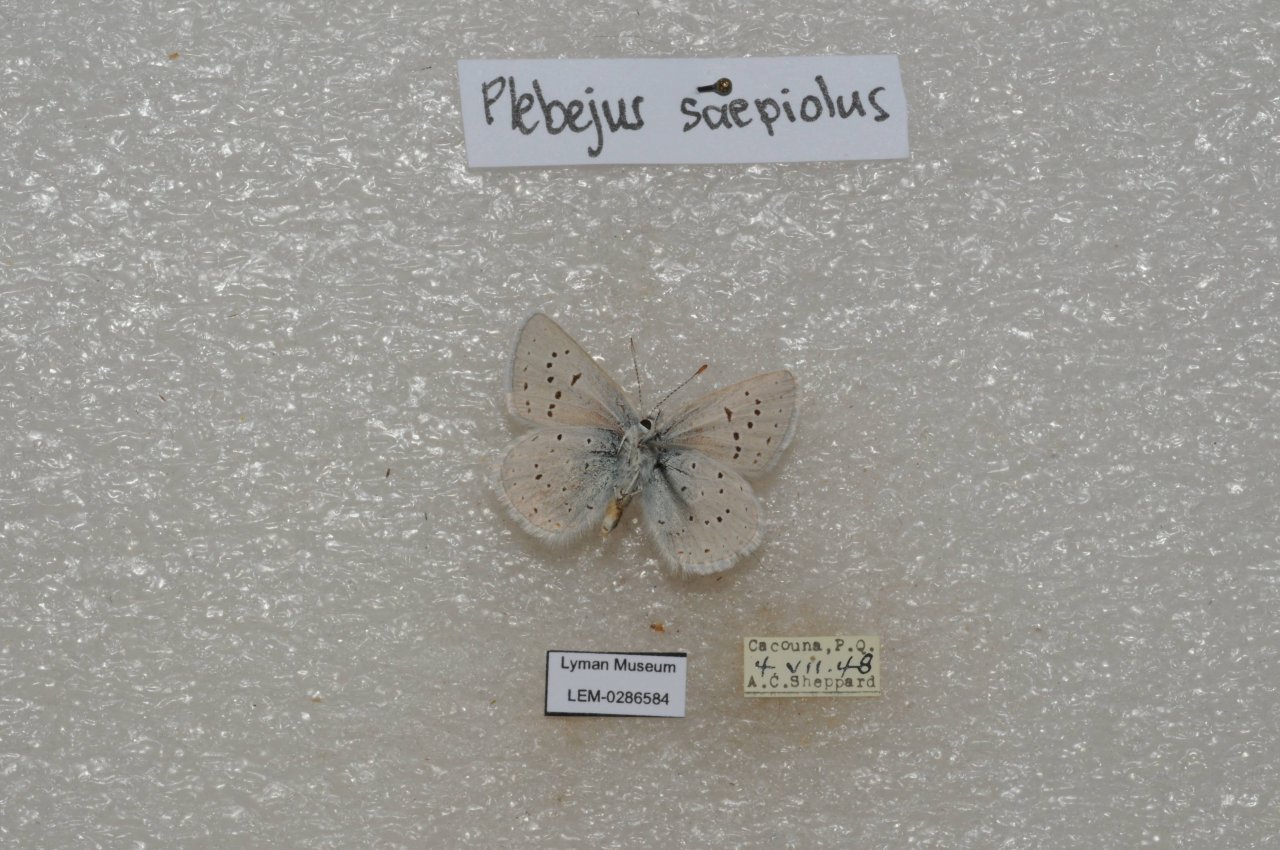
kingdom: Animalia
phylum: Arthropoda
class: Insecta
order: Lepidoptera
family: Lycaenidae
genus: Plebejus
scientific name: Plebejus saepiolus
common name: Greenish Blue
